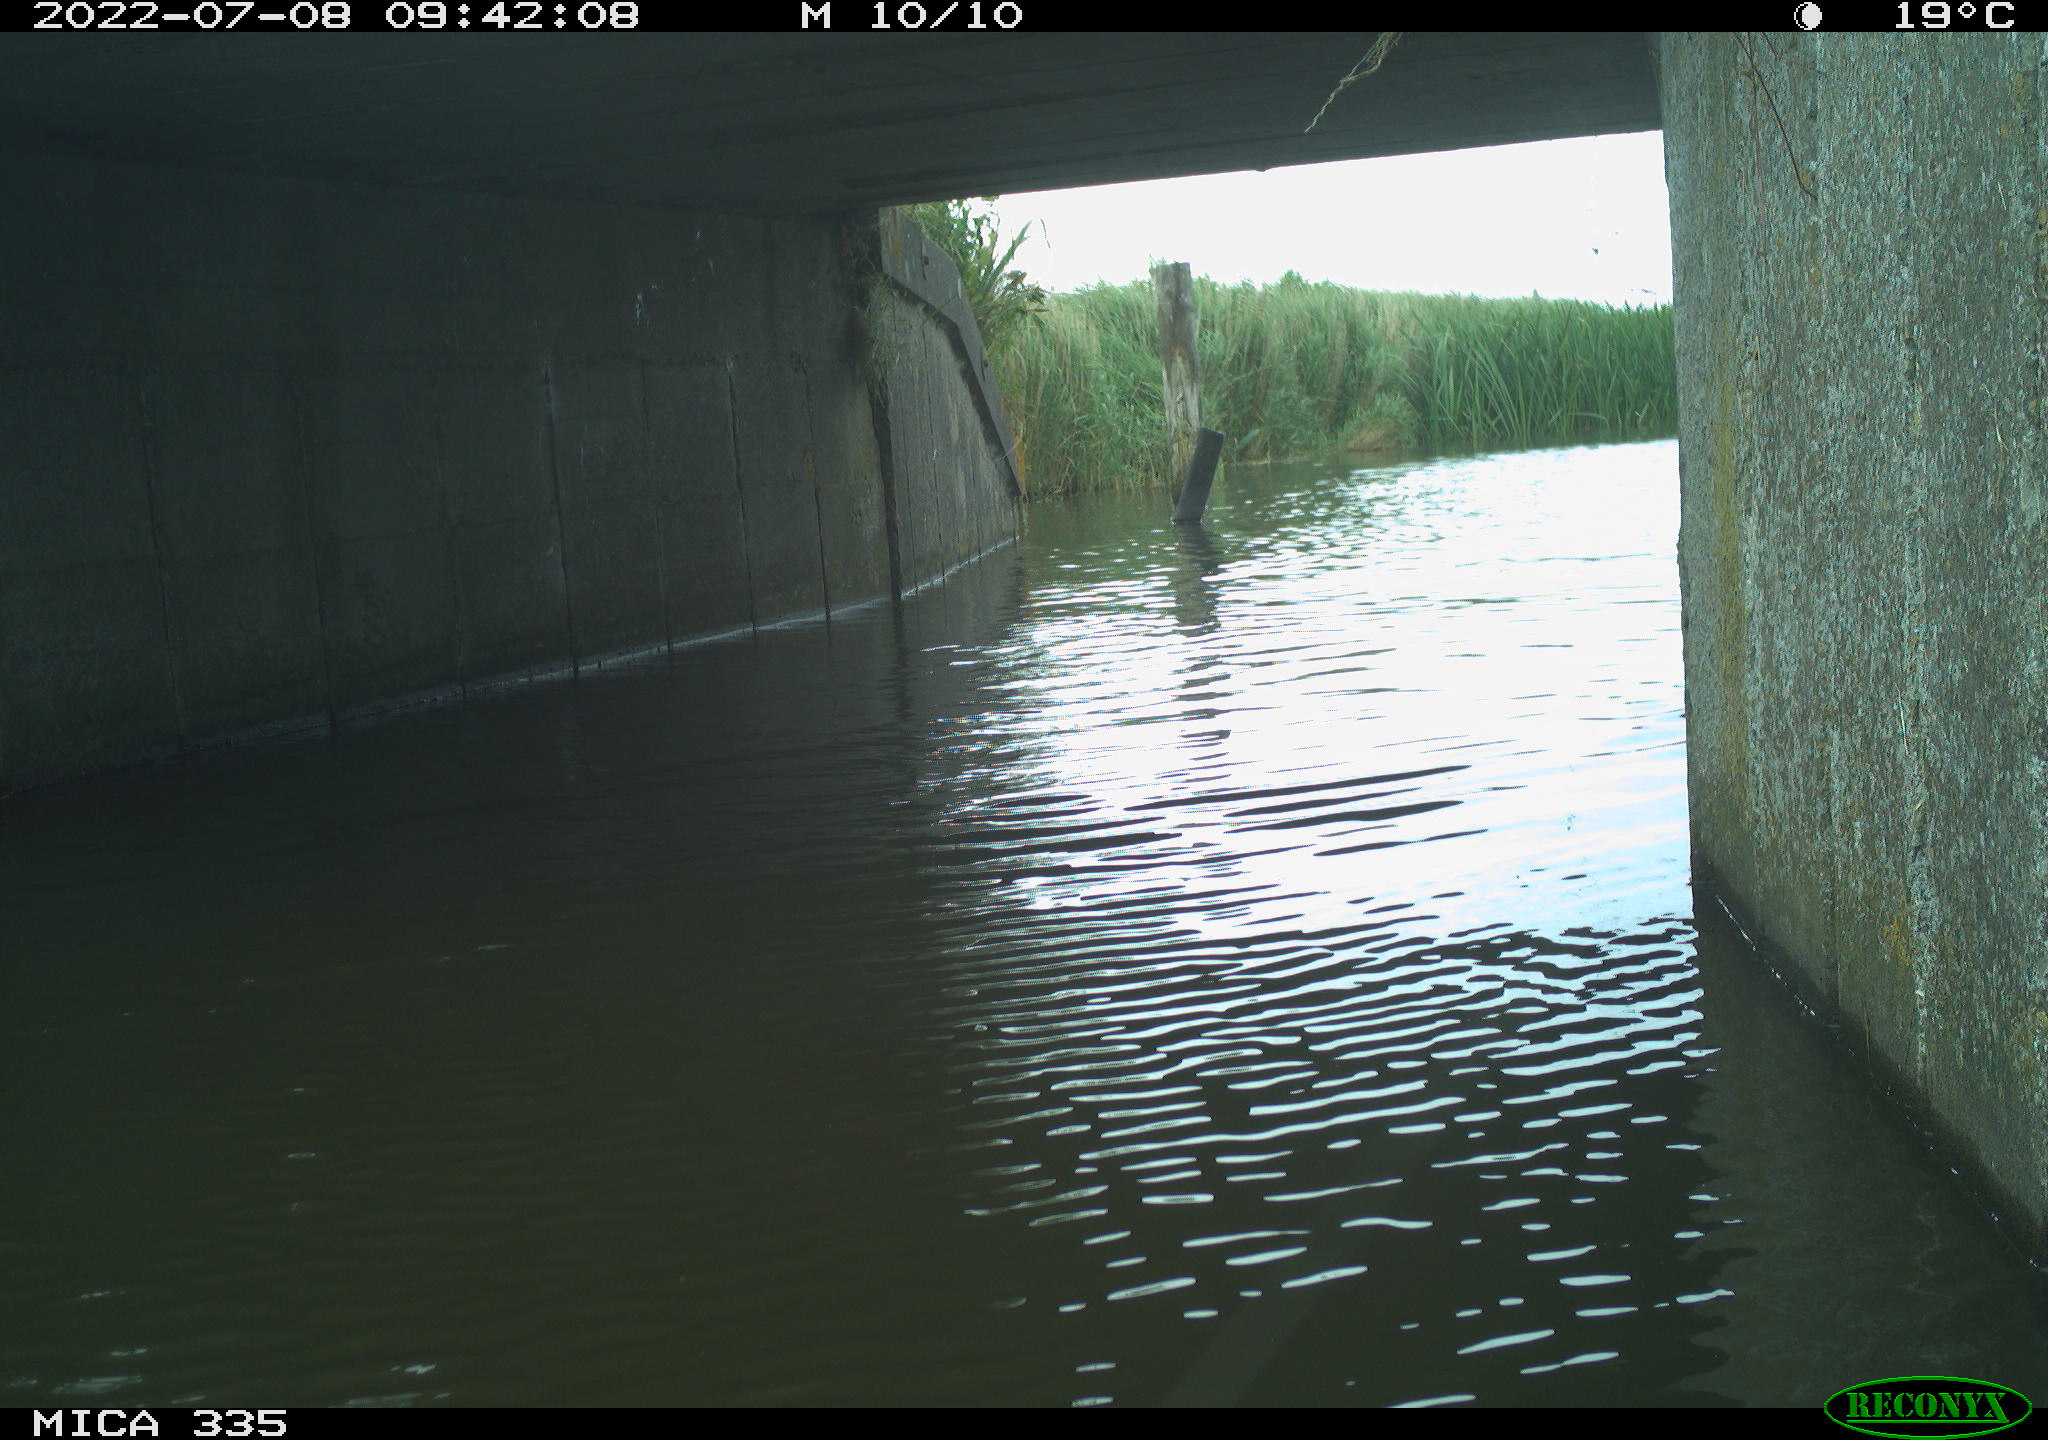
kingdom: Animalia
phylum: Chordata
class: Aves
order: Anseriformes
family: Anatidae
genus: Anas
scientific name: Anas platyrhynchos
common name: Mallard
